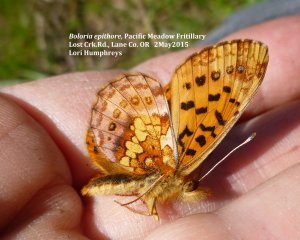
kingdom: Animalia
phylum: Arthropoda
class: Insecta
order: Lepidoptera
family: Nymphalidae
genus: Boloria
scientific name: Boloria epithore
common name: Pacific Fritillary
